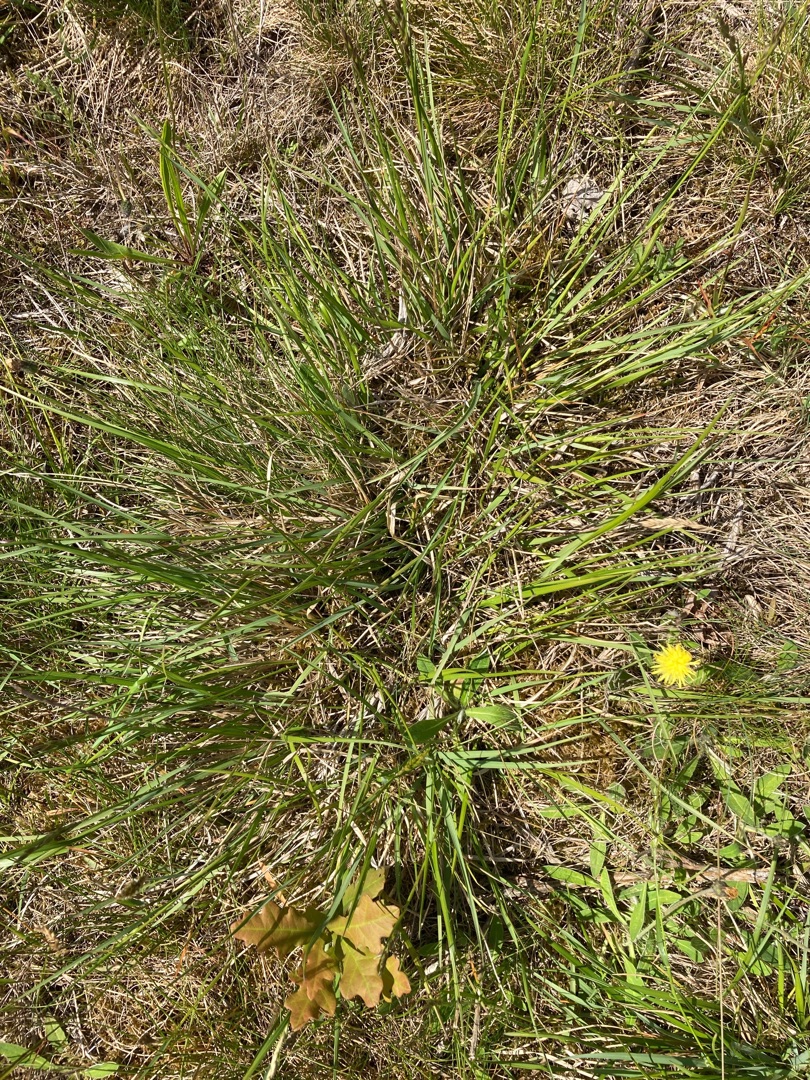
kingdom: Plantae
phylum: Tracheophyta
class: Liliopsida
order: Poales
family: Poaceae
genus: Danthonia
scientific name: Danthonia decumbens
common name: Tandbælg
